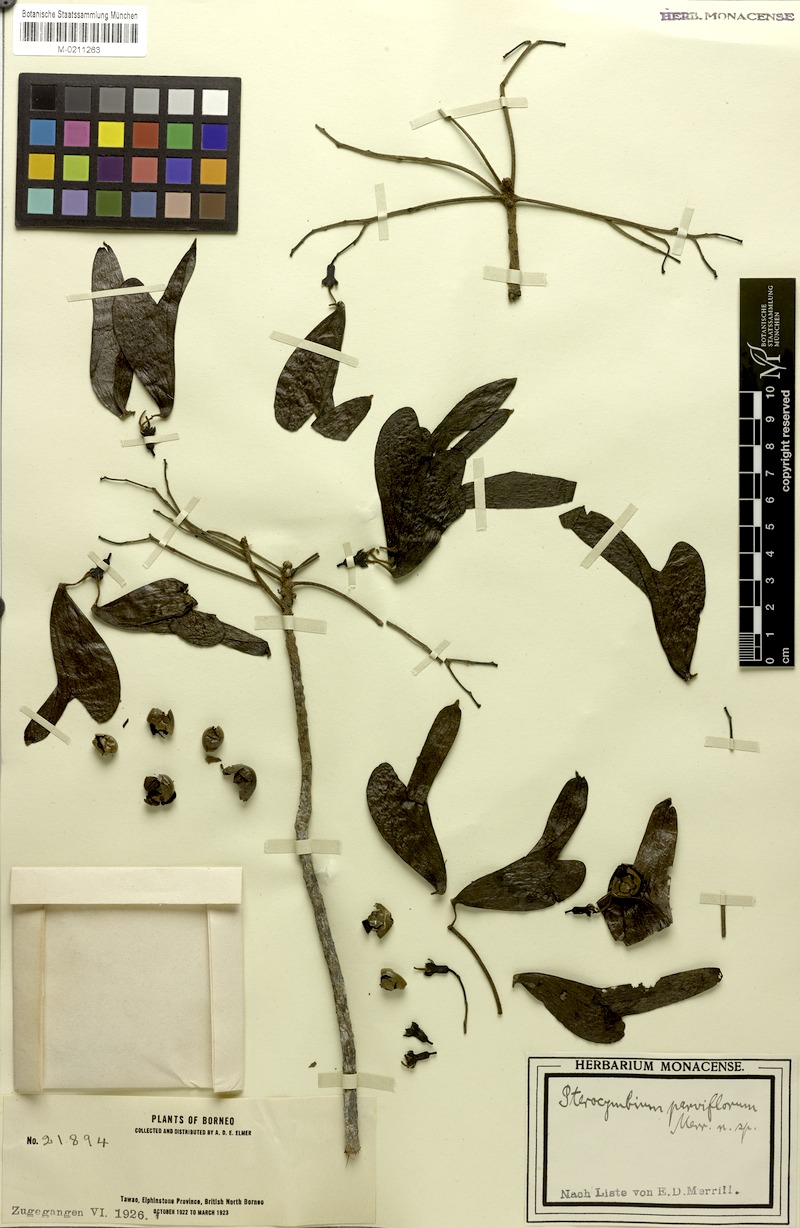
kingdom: Plantae
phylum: Tracheophyta
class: Magnoliopsida
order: Malvales
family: Malvaceae
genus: Pterocymbium
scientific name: Pterocymbium parviflorum
